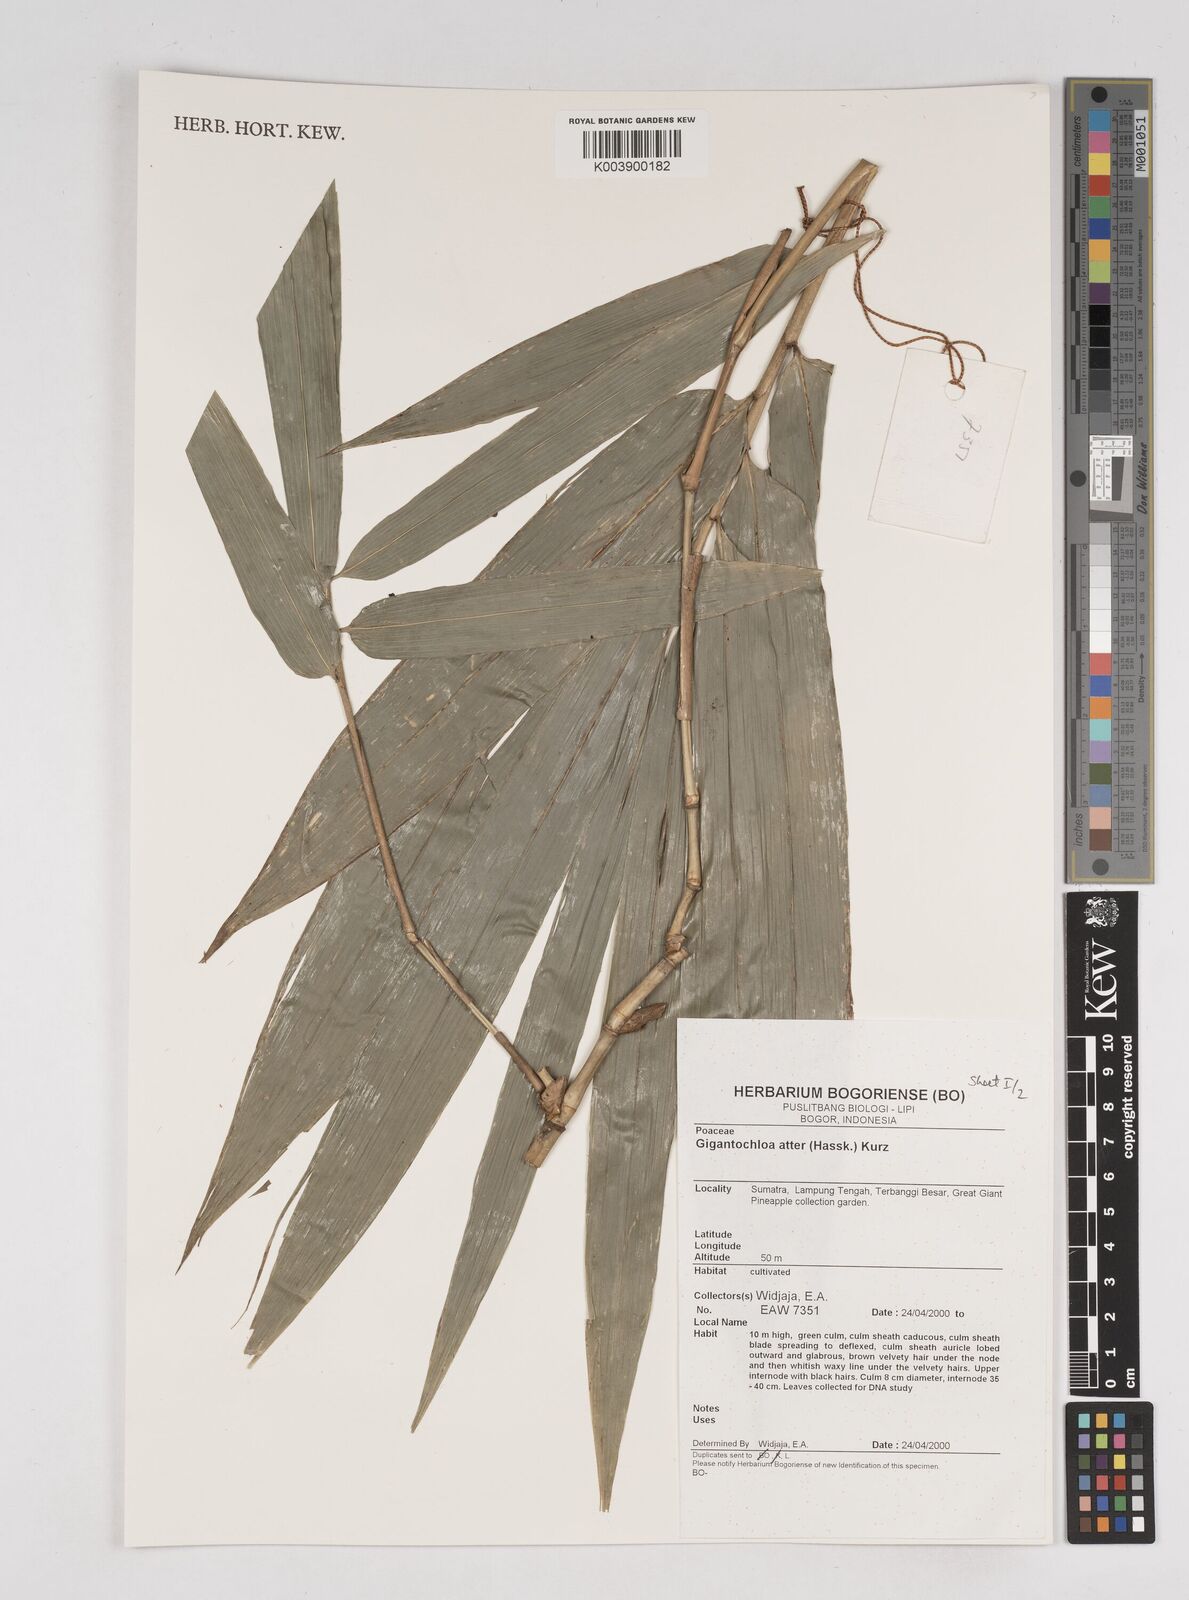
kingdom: Plantae
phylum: Tracheophyta
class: Liliopsida
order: Poales
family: Poaceae
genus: Gigantochloa
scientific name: Gigantochloa atter
